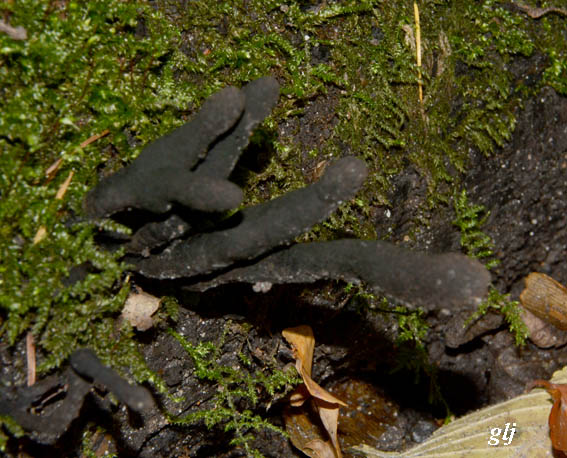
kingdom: Fungi
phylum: Ascomycota
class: Sordariomycetes
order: Xylariales
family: Xylariaceae
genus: Xylaria
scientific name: Xylaria longipes
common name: slank stødsvamp
